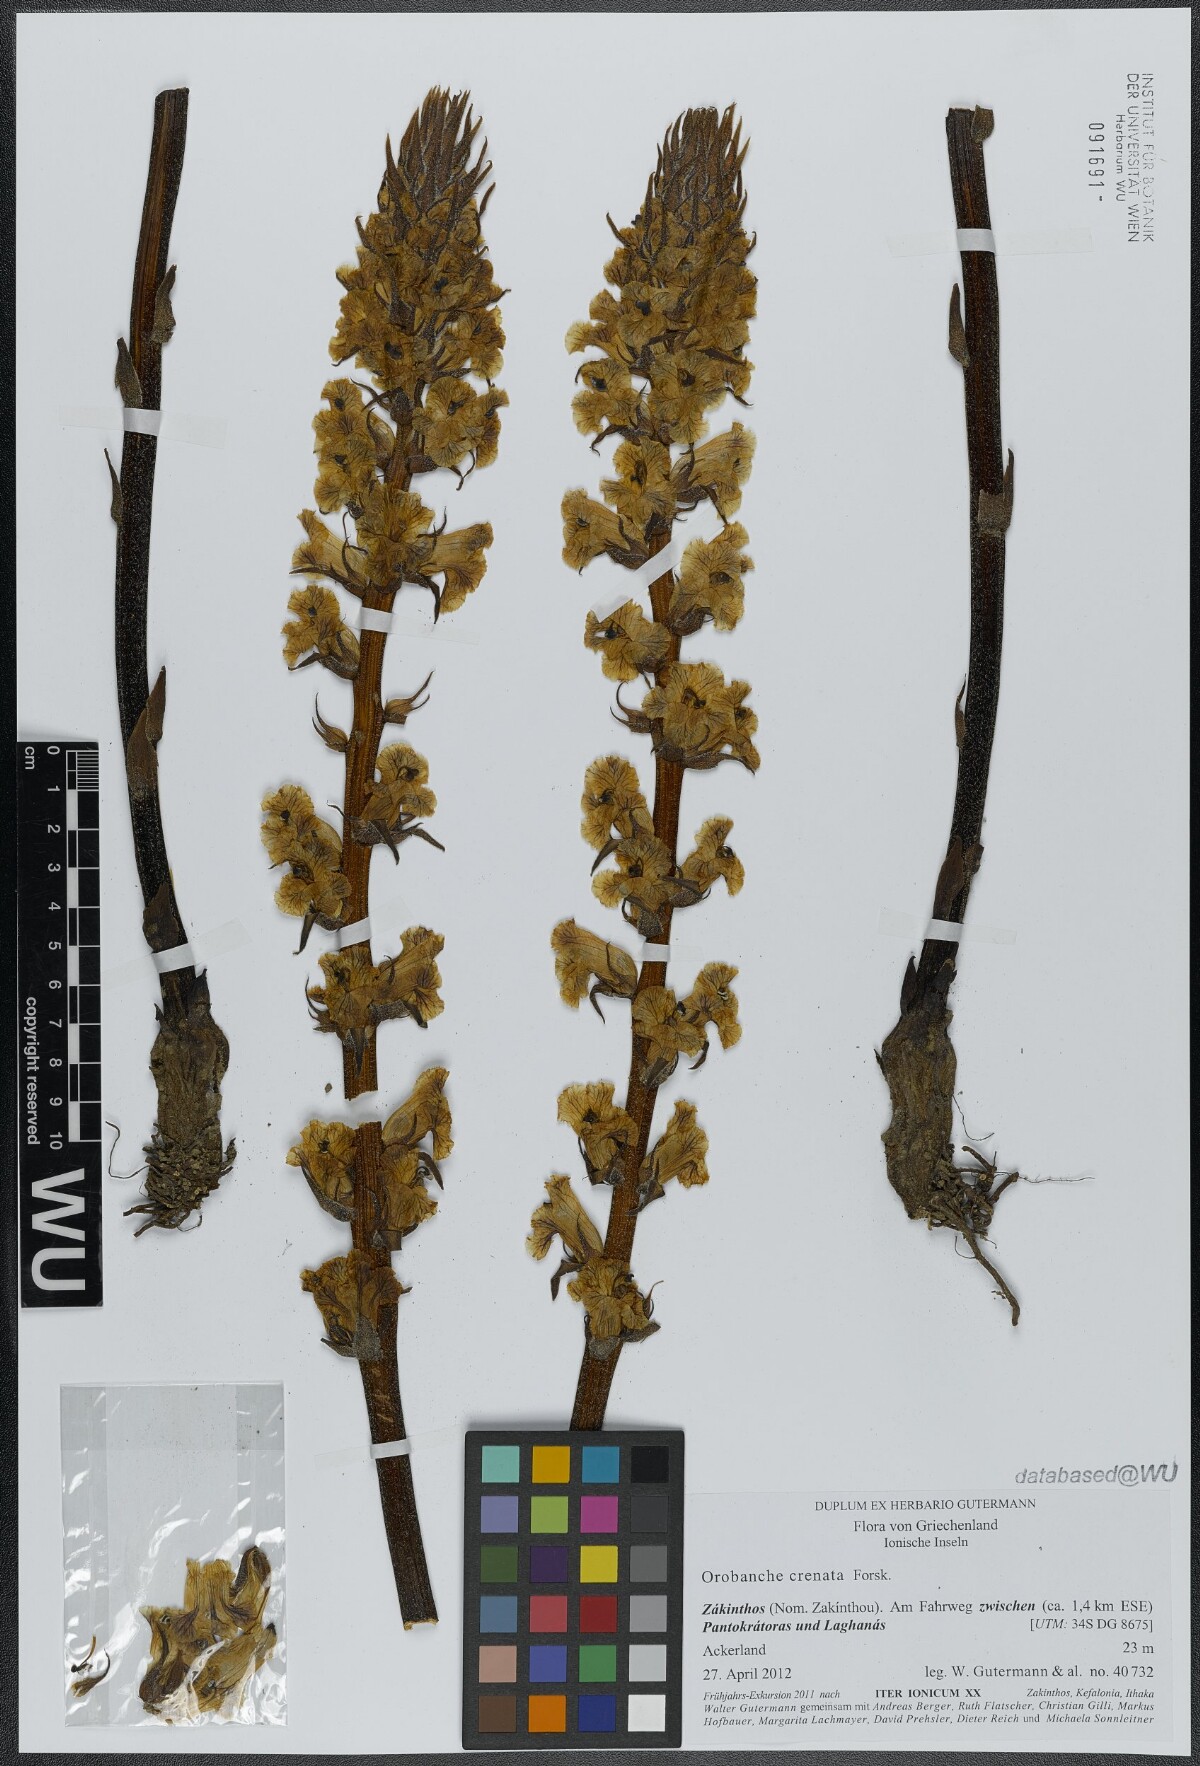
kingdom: Plantae
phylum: Tracheophyta
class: Magnoliopsida
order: Lamiales
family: Orobanchaceae
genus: Orobanche
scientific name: Orobanche crenata
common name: Bean broomrape
